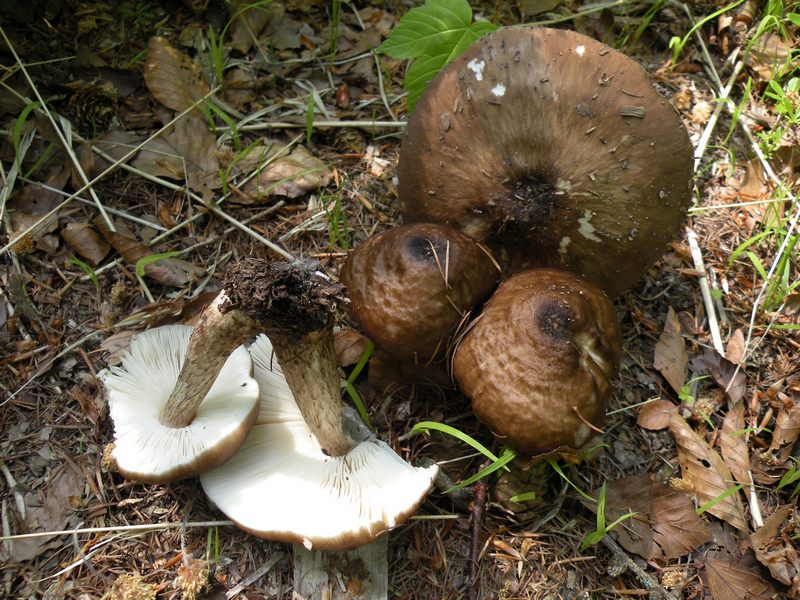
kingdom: Fungi
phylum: Basidiomycota
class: Agaricomycetes
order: Agaricales
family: Pluteaceae
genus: Pluteus
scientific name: Pluteus cervinus
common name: sodfarvet skærmhat
